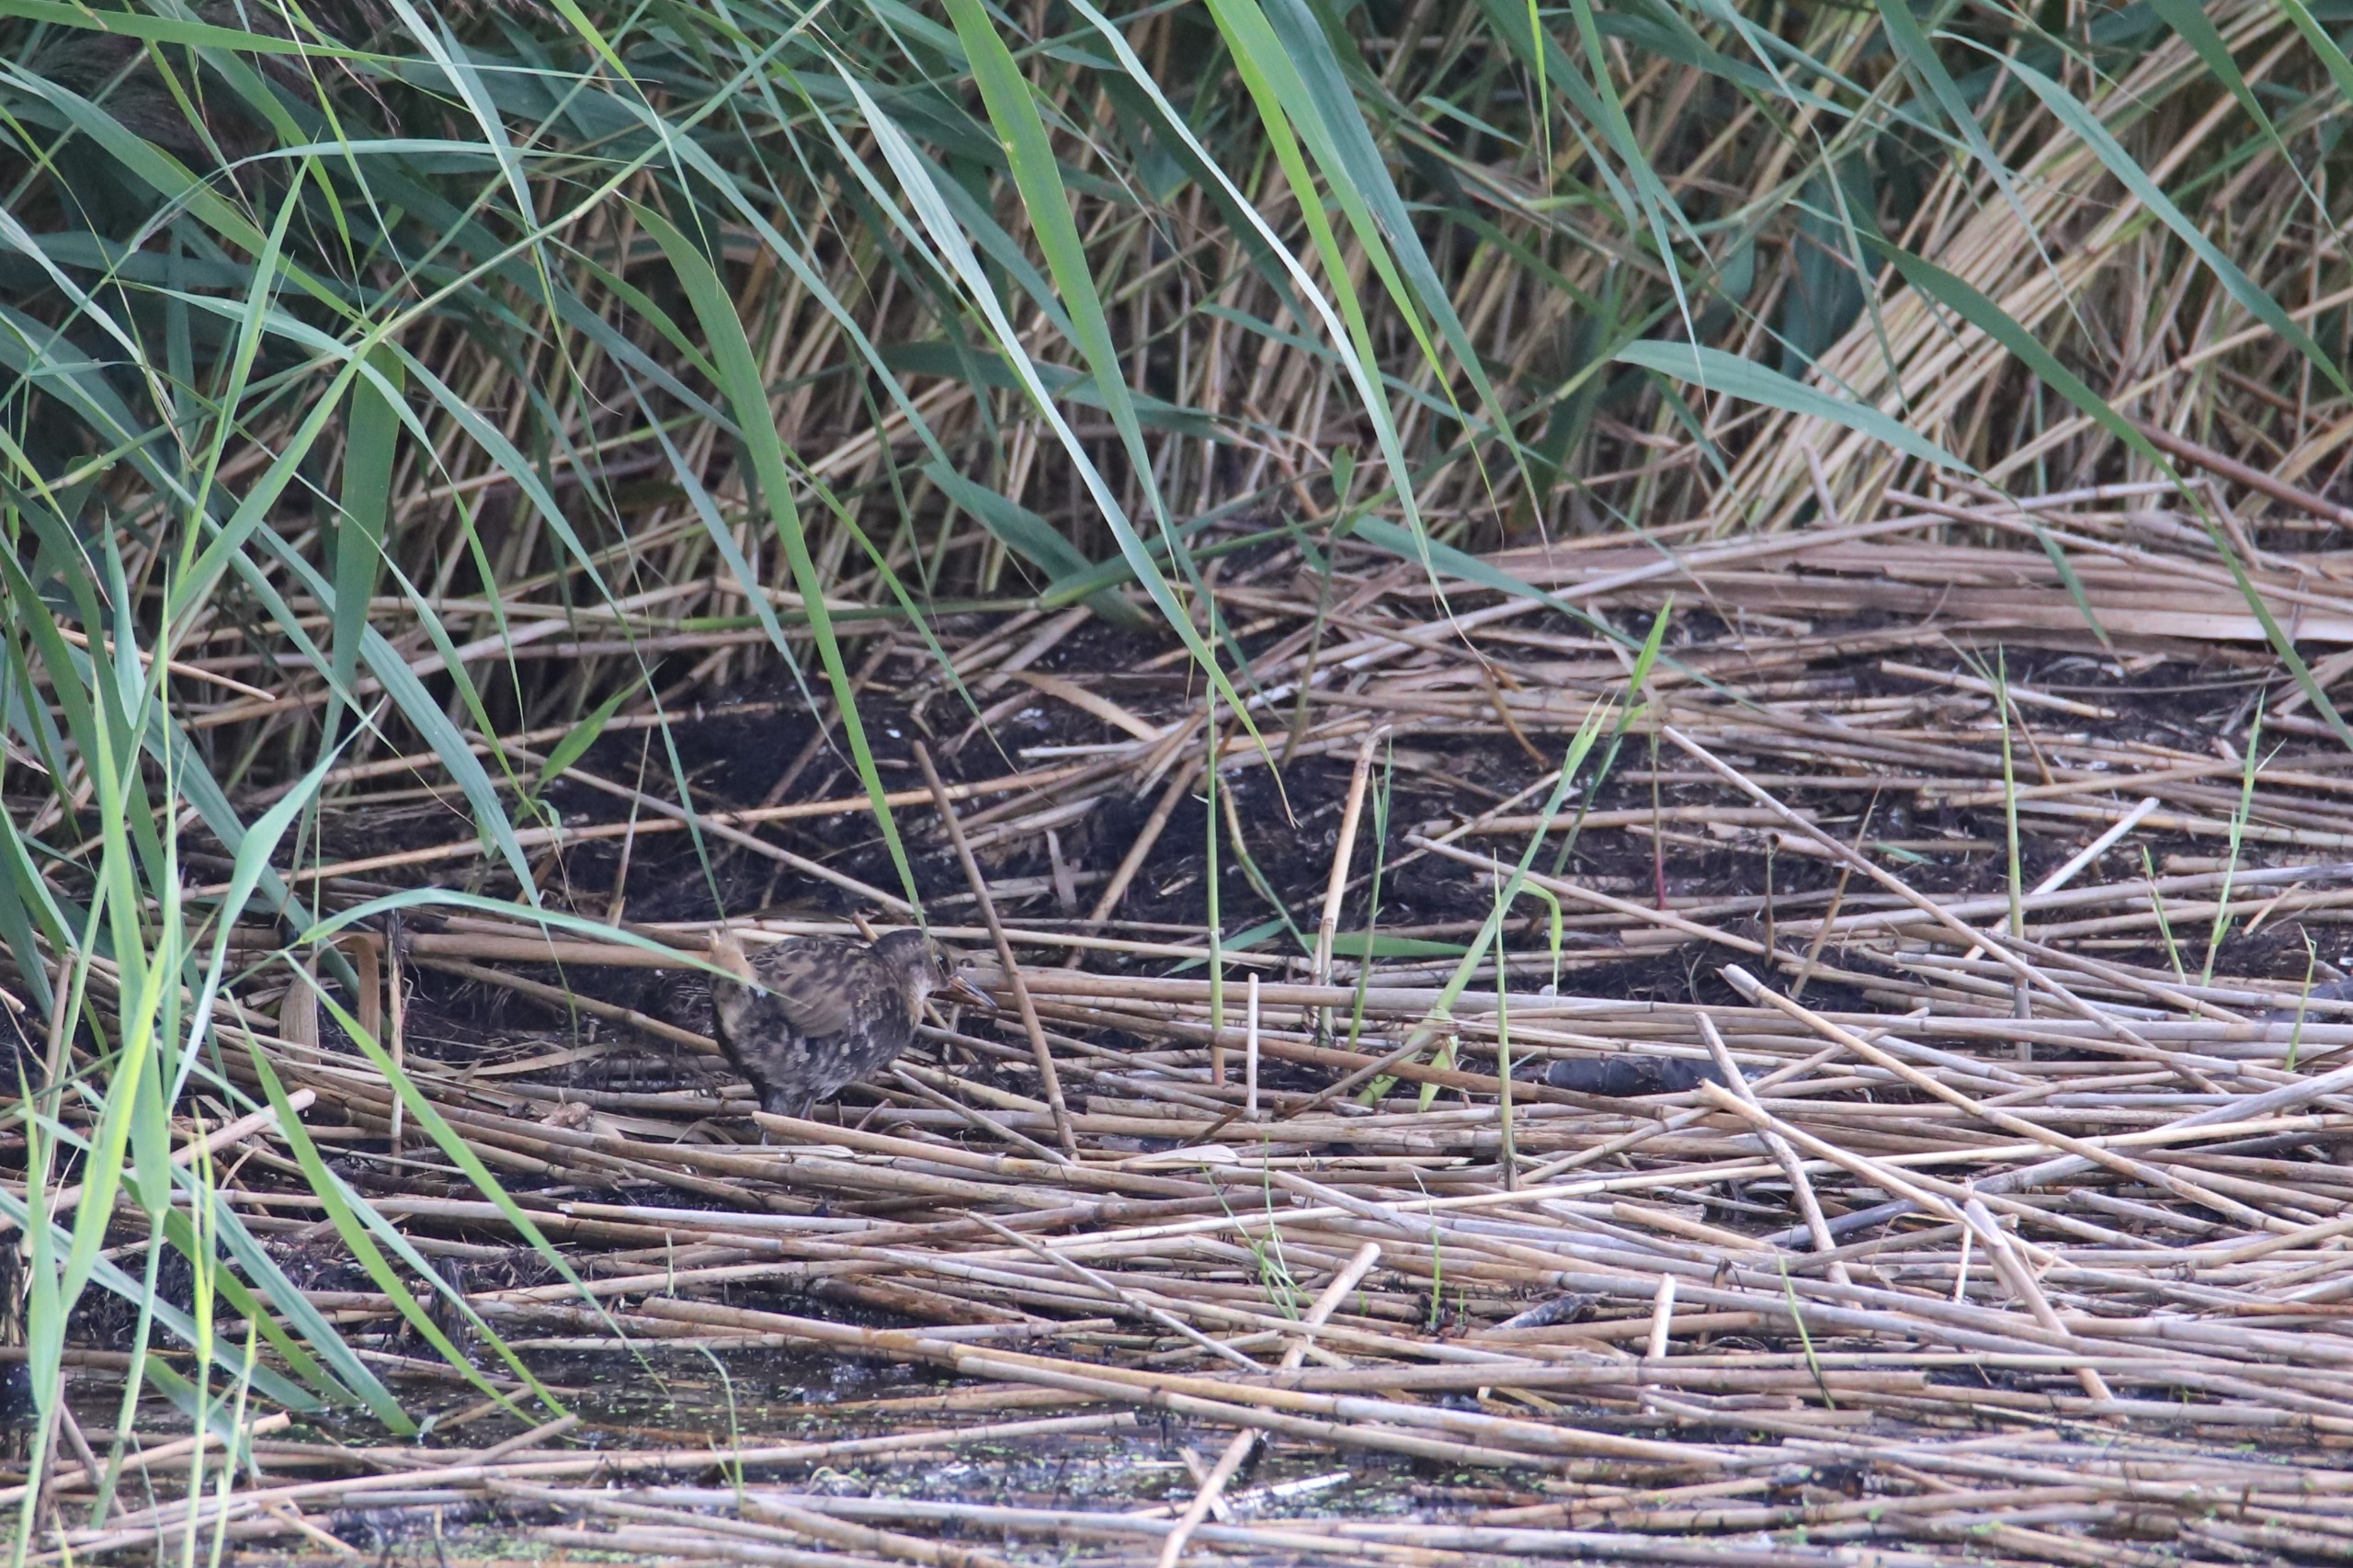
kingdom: Animalia
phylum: Chordata
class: Aves
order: Gruiformes
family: Rallidae
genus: Rallus
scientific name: Rallus aquaticus
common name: Vandrikse
